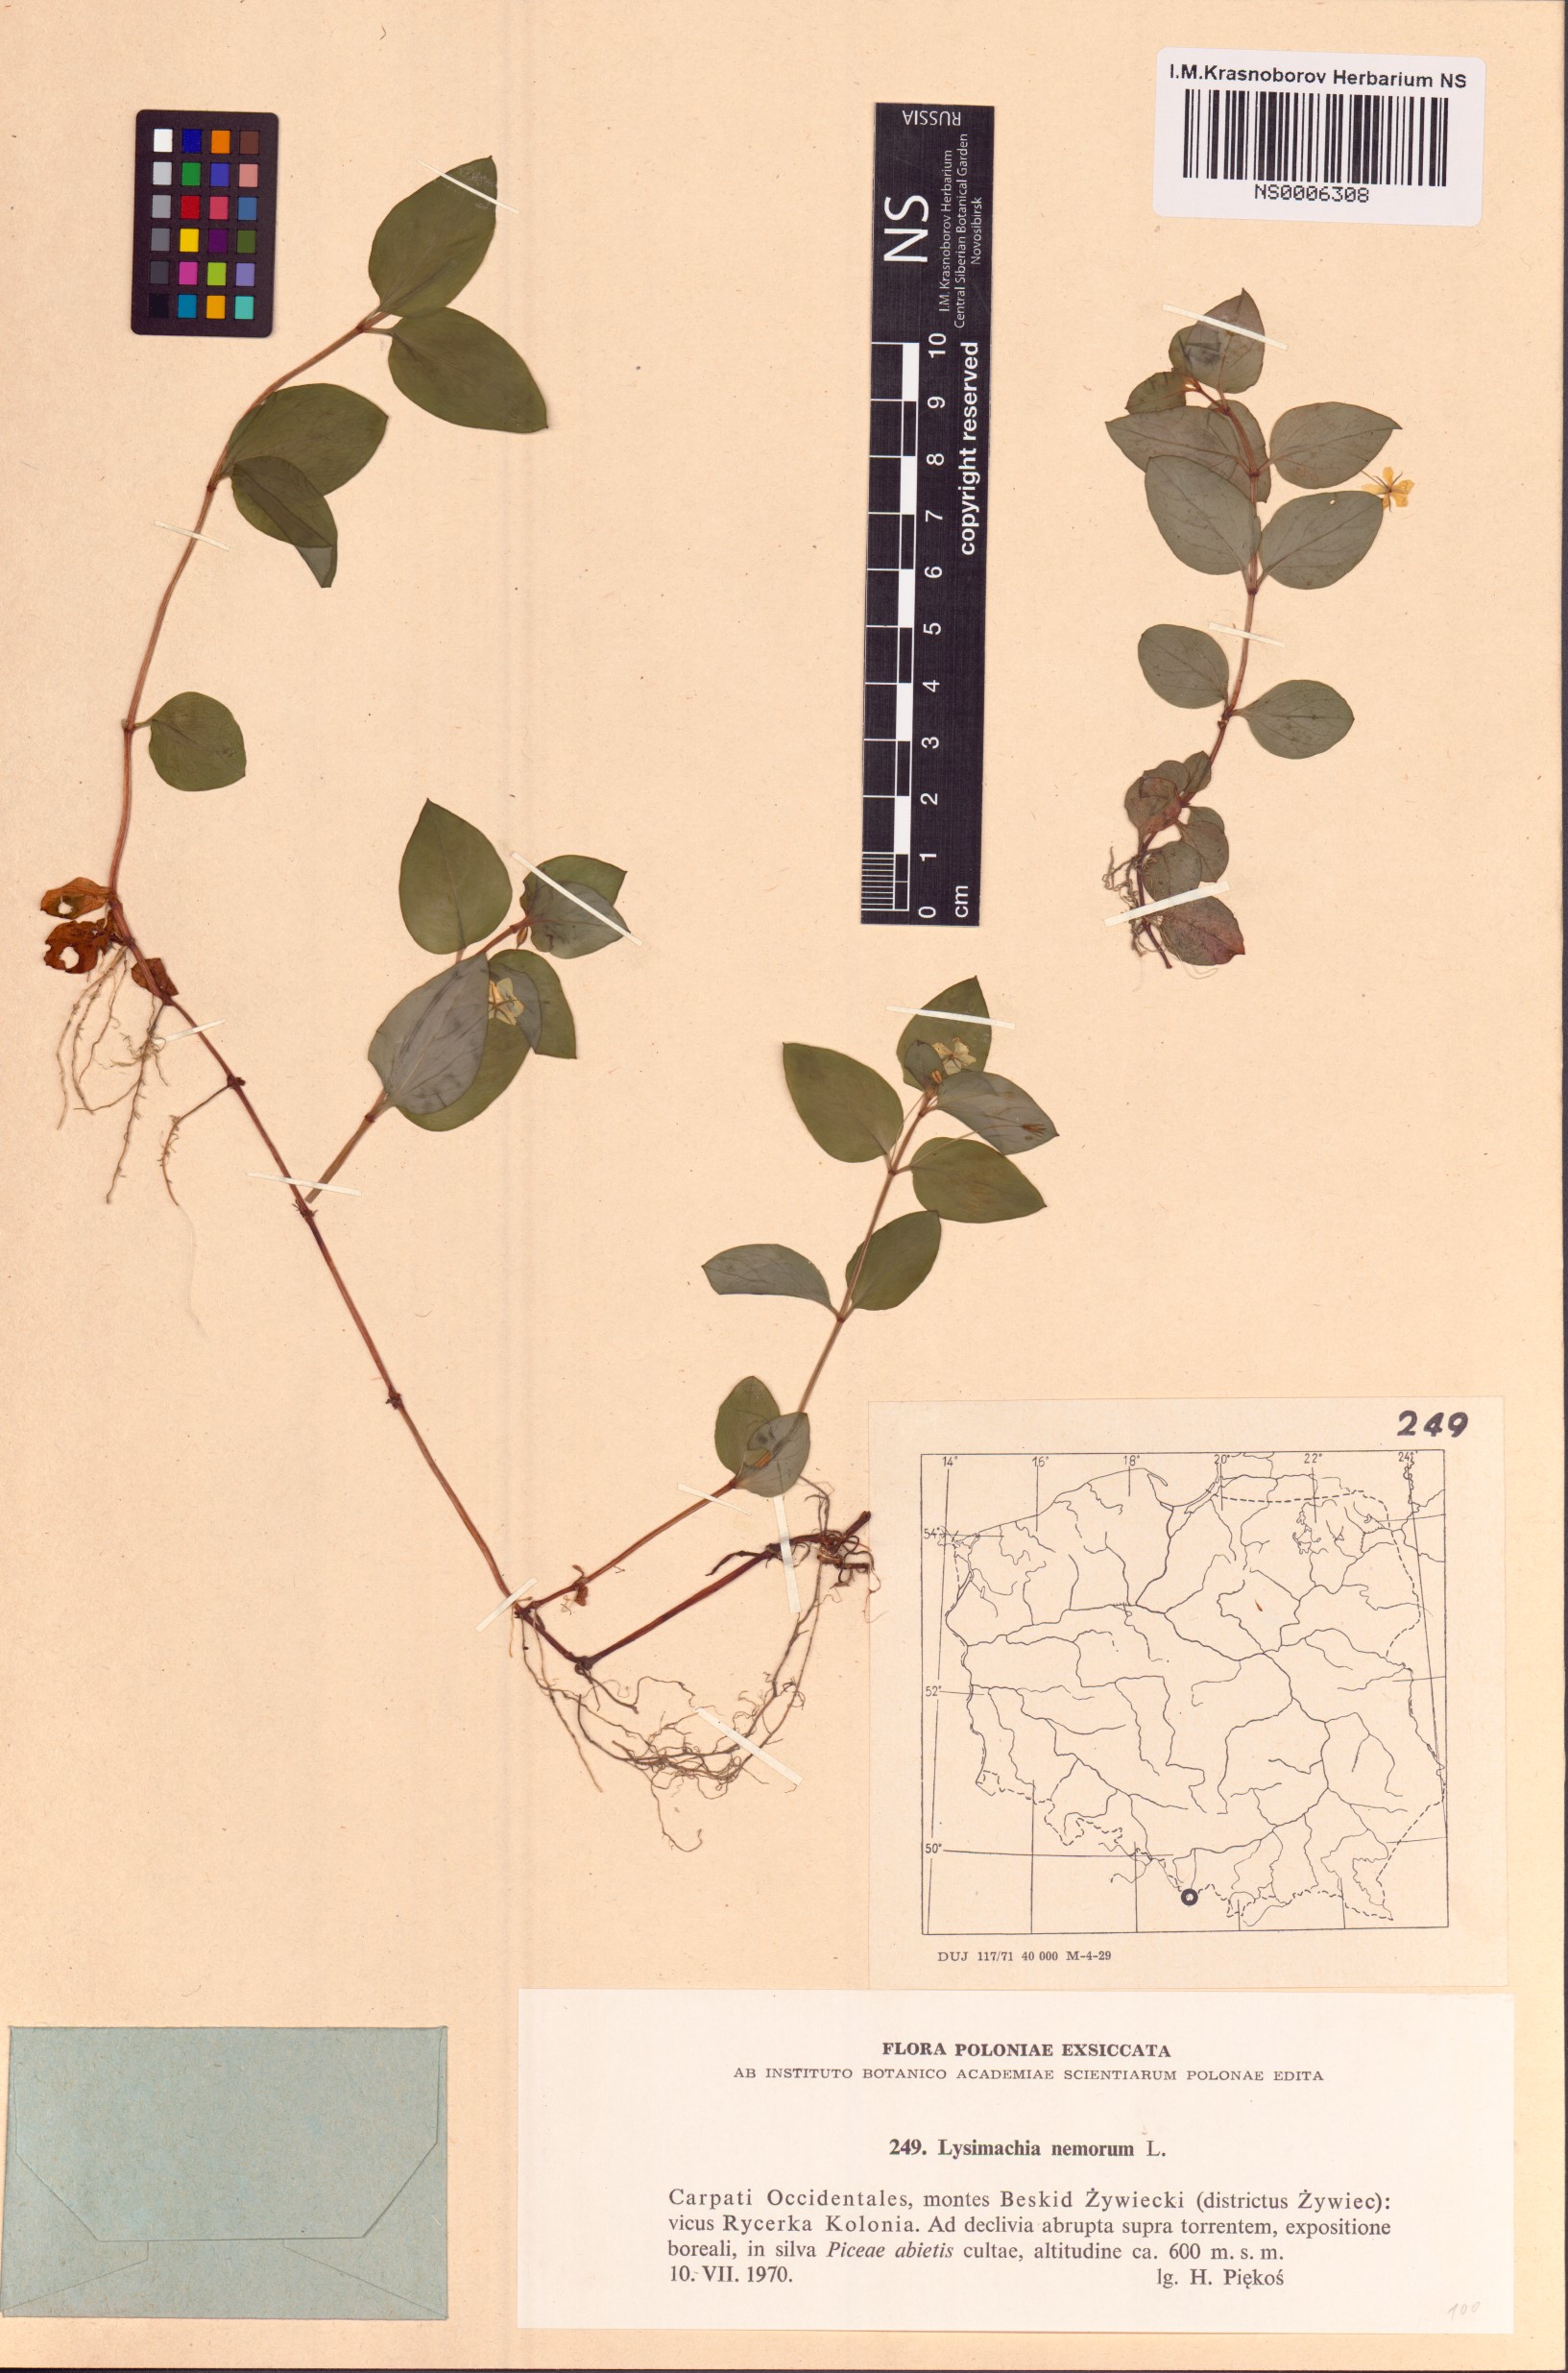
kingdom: Plantae
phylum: Tracheophyta
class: Magnoliopsida
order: Ericales
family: Primulaceae
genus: Lysimachia
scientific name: Lysimachia nemorum
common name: Yellow pimpernel
